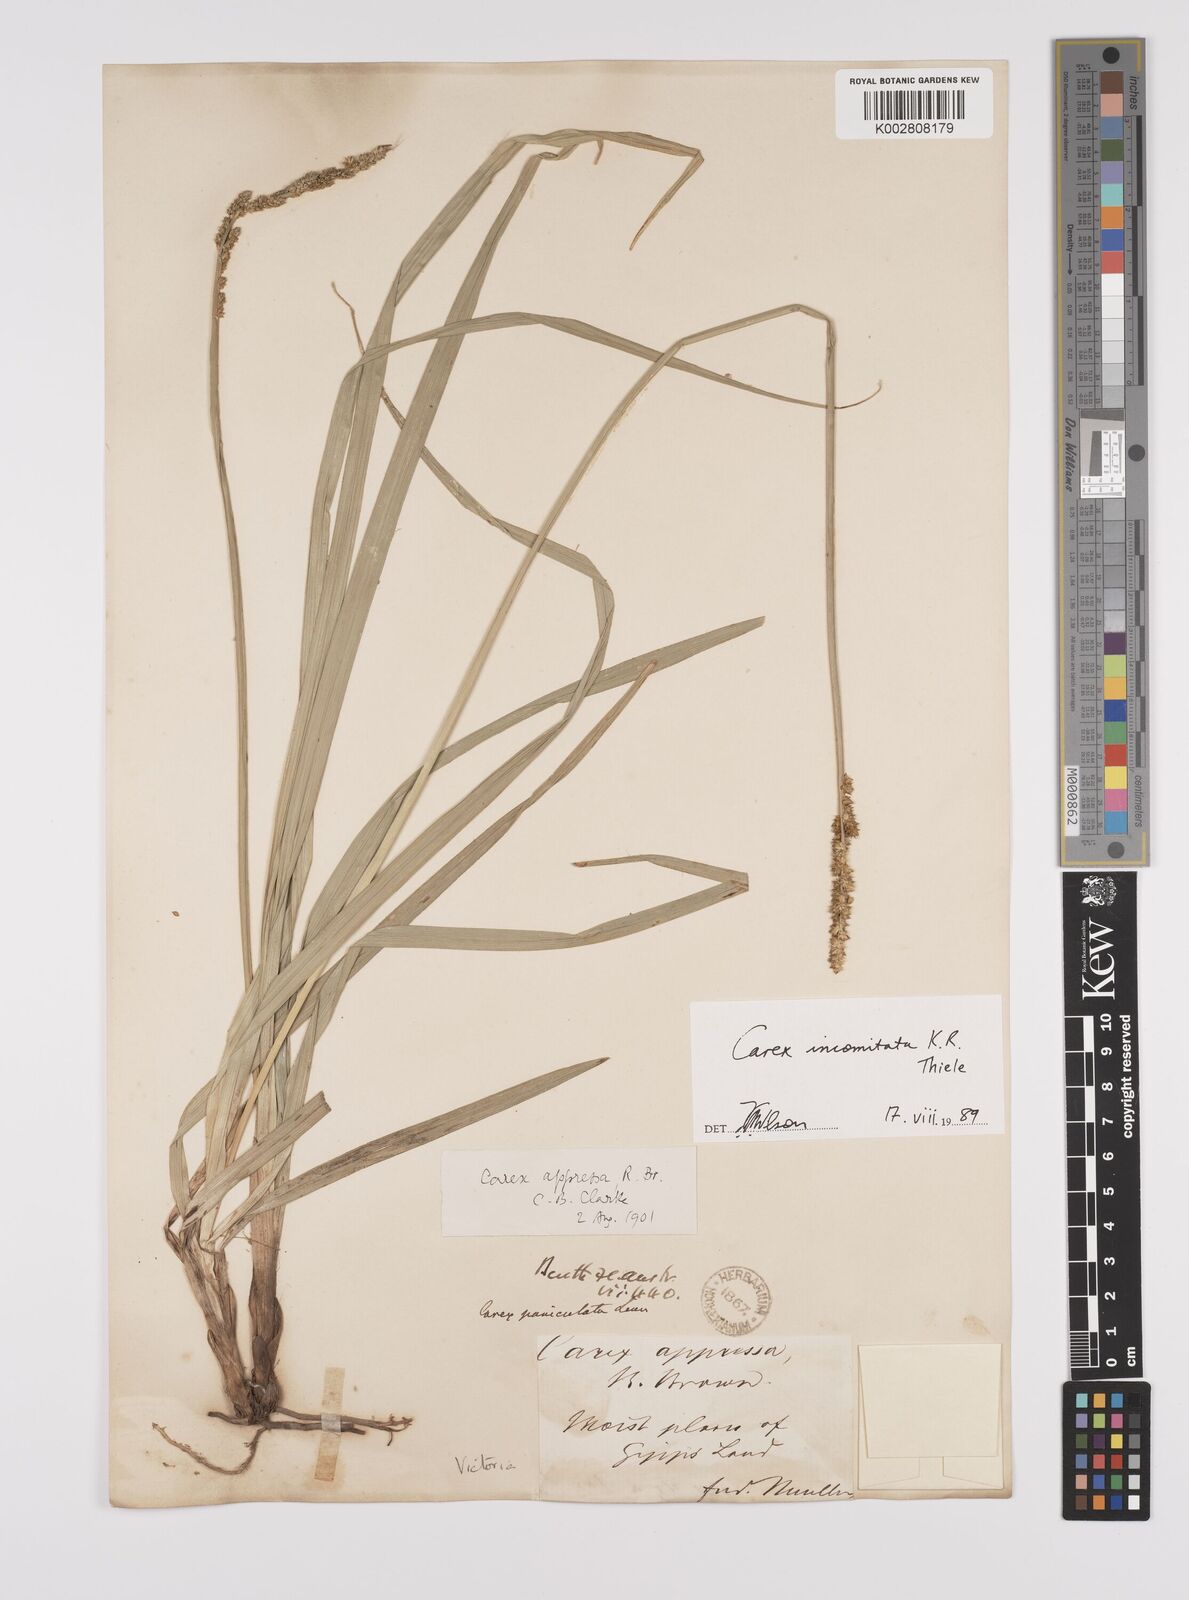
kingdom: Plantae
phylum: Tracheophyta
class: Liliopsida
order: Poales
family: Cyperaceae
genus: Carex
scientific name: Carex incomitata
